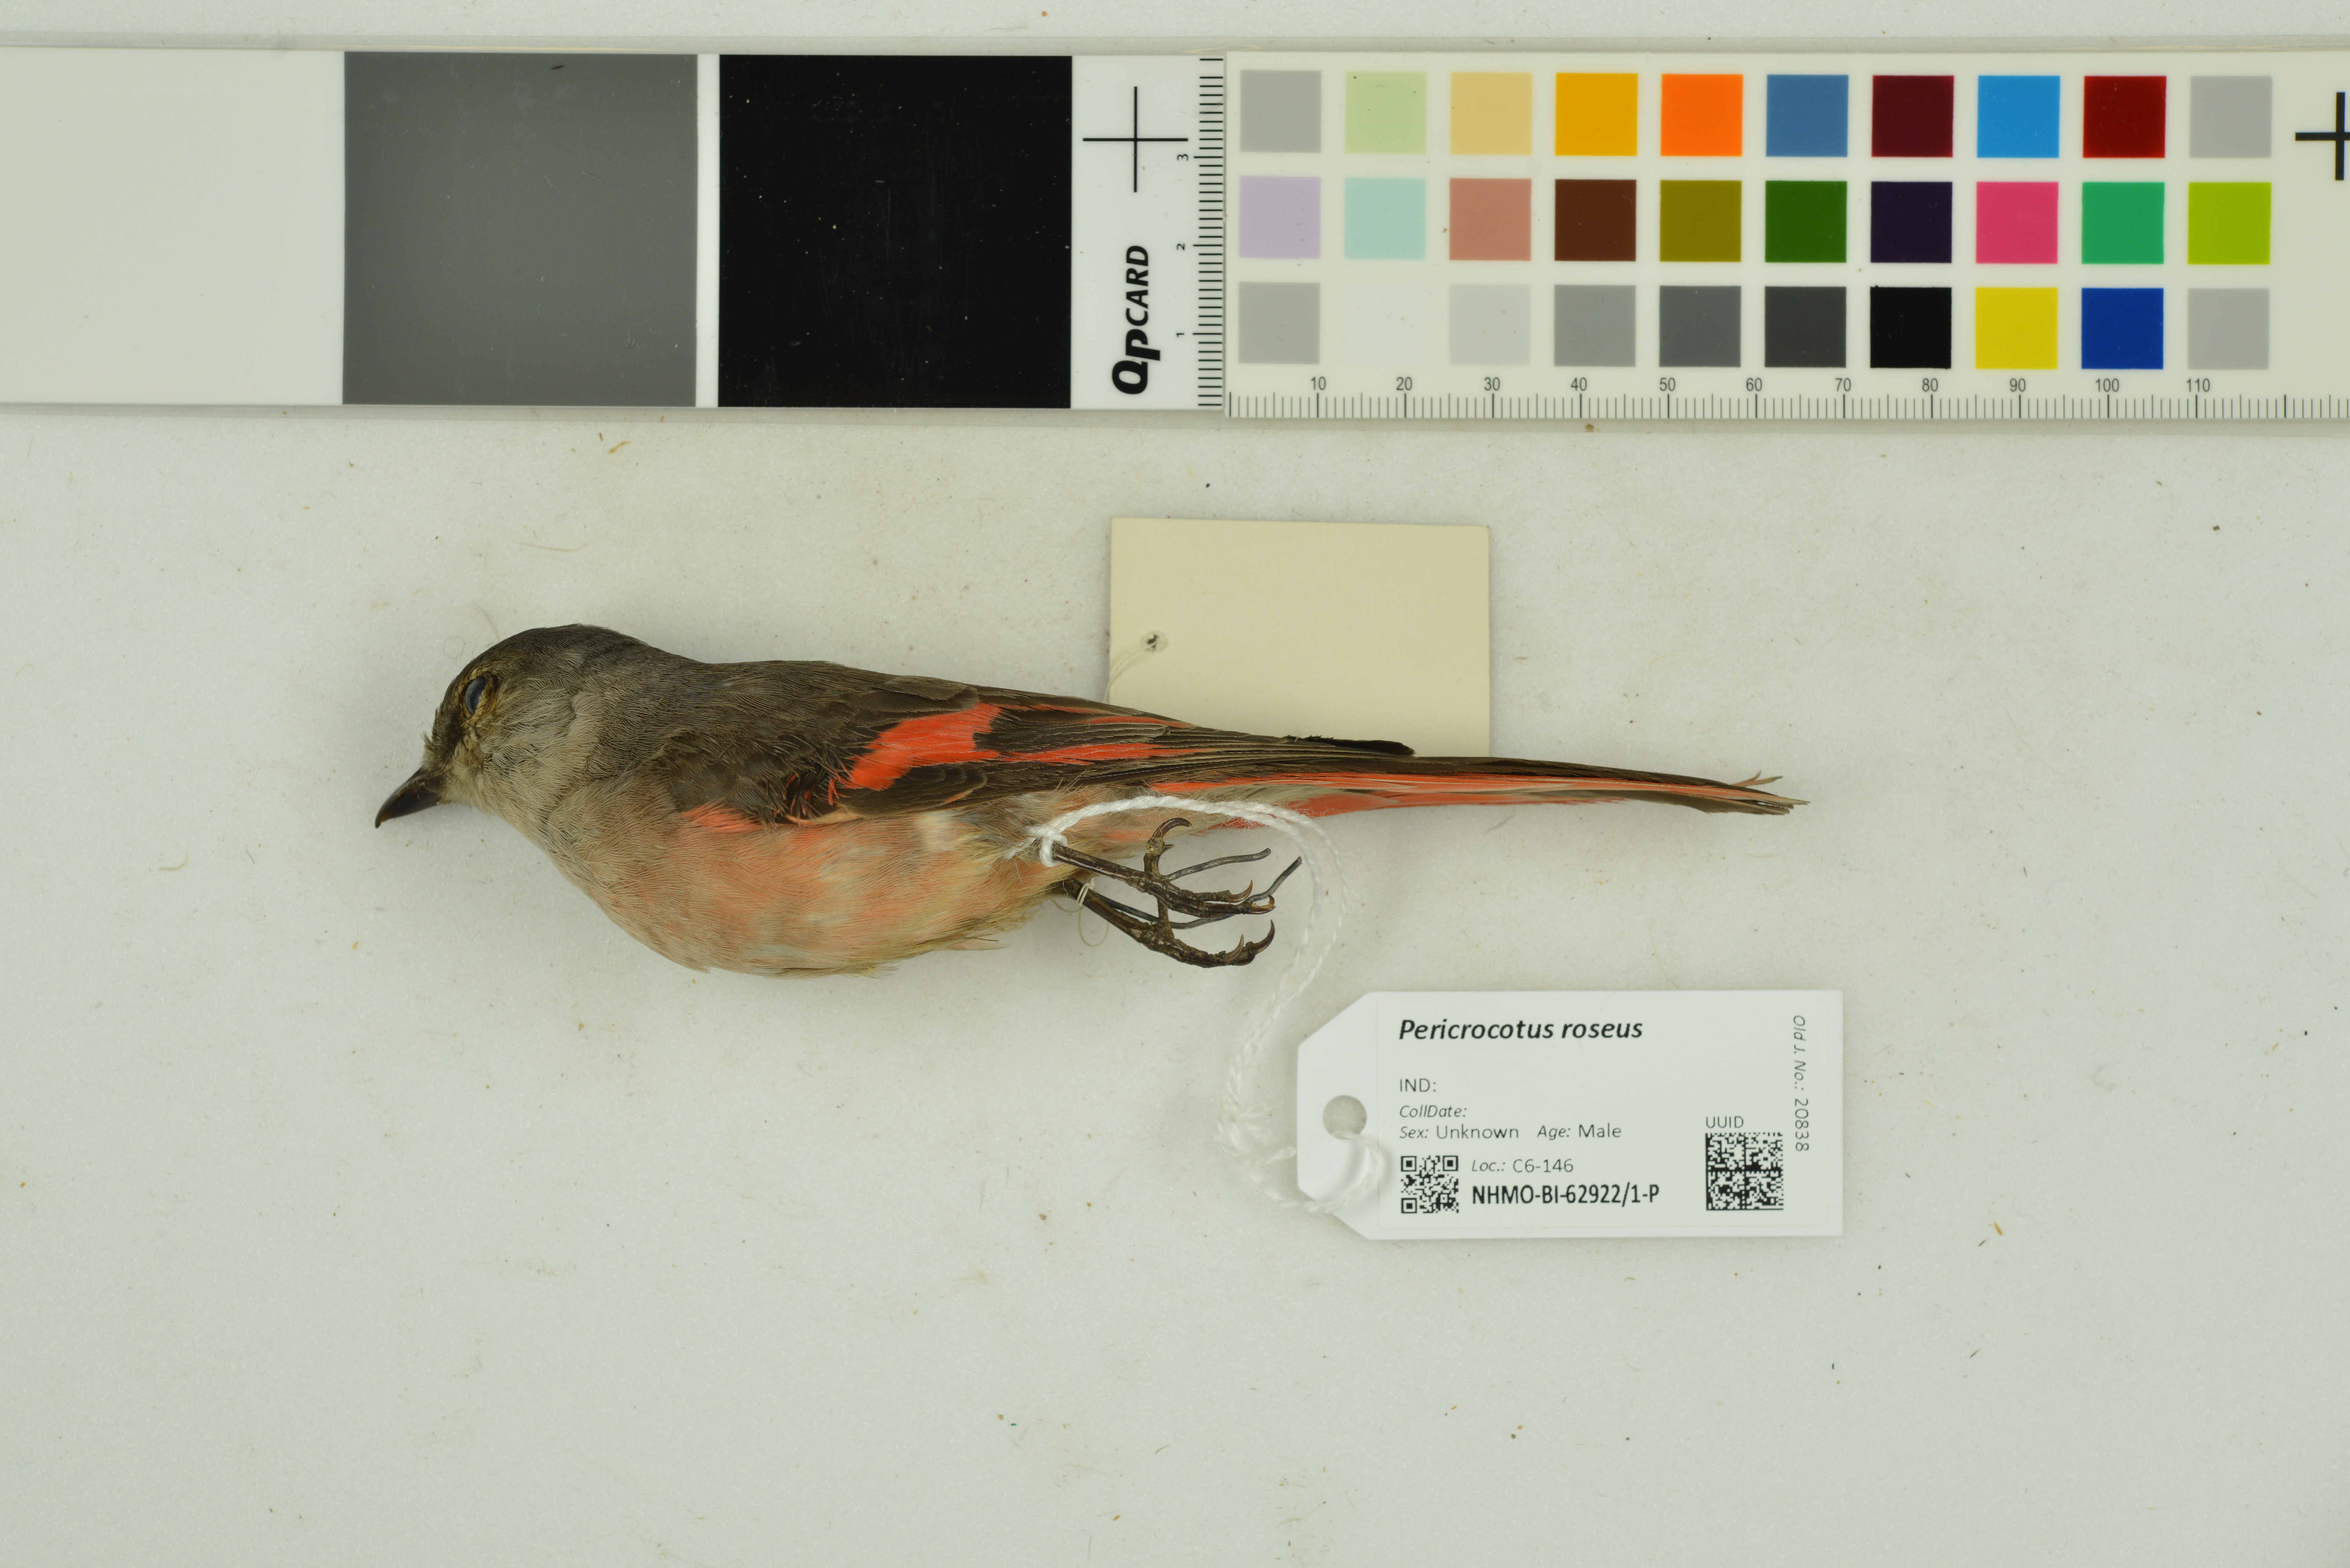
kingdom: Animalia
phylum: Chordata
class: Aves
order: Passeriformes
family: Campephagidae
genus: Pericrocotus
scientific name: Pericrocotus roseus
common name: Rosy minivet
